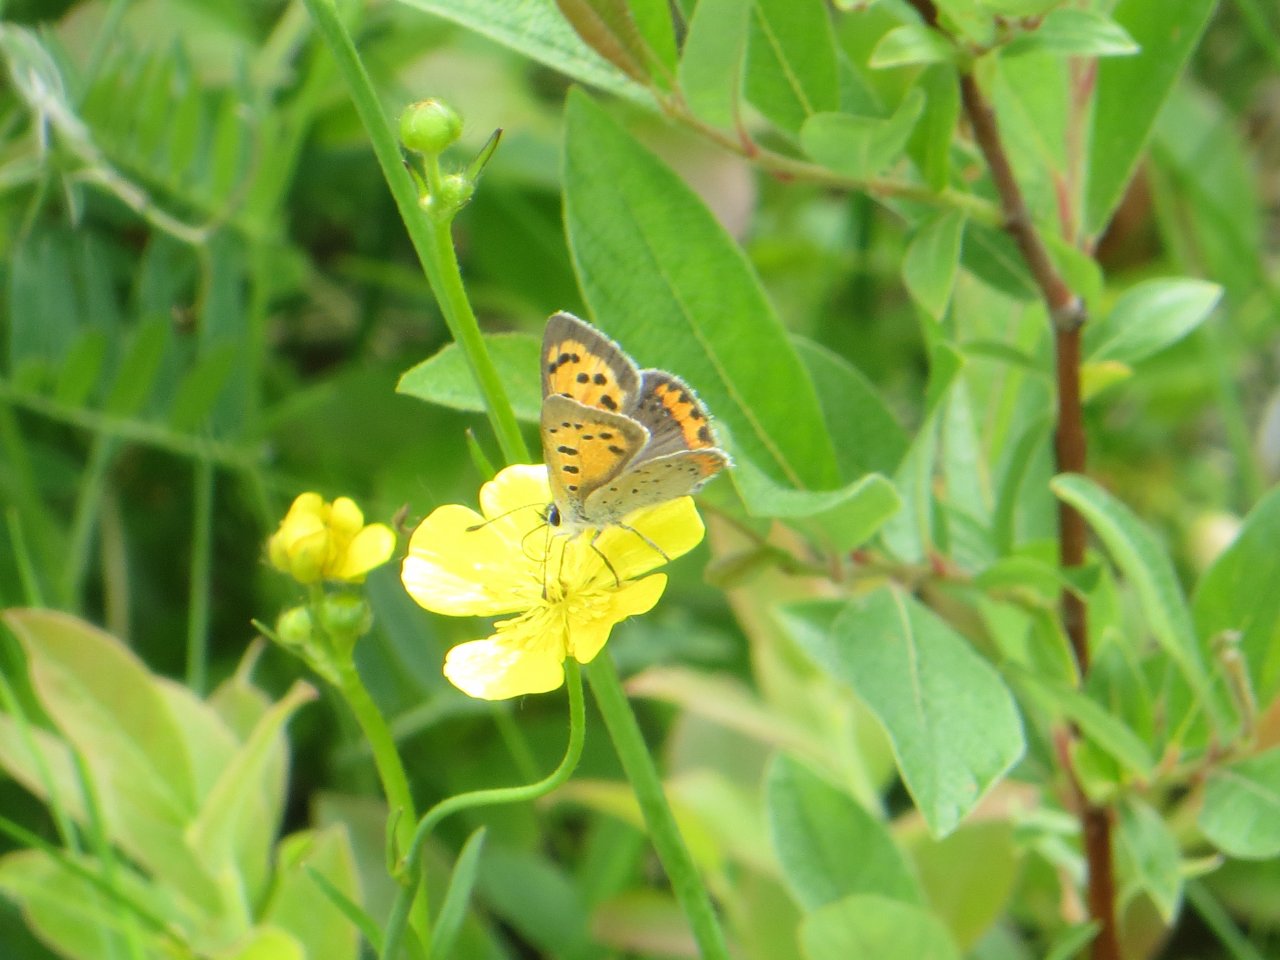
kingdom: Animalia
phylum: Arthropoda
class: Insecta
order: Lepidoptera
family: Lycaenidae
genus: Lycaena
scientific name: Lycaena phlaeas
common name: American Copper
